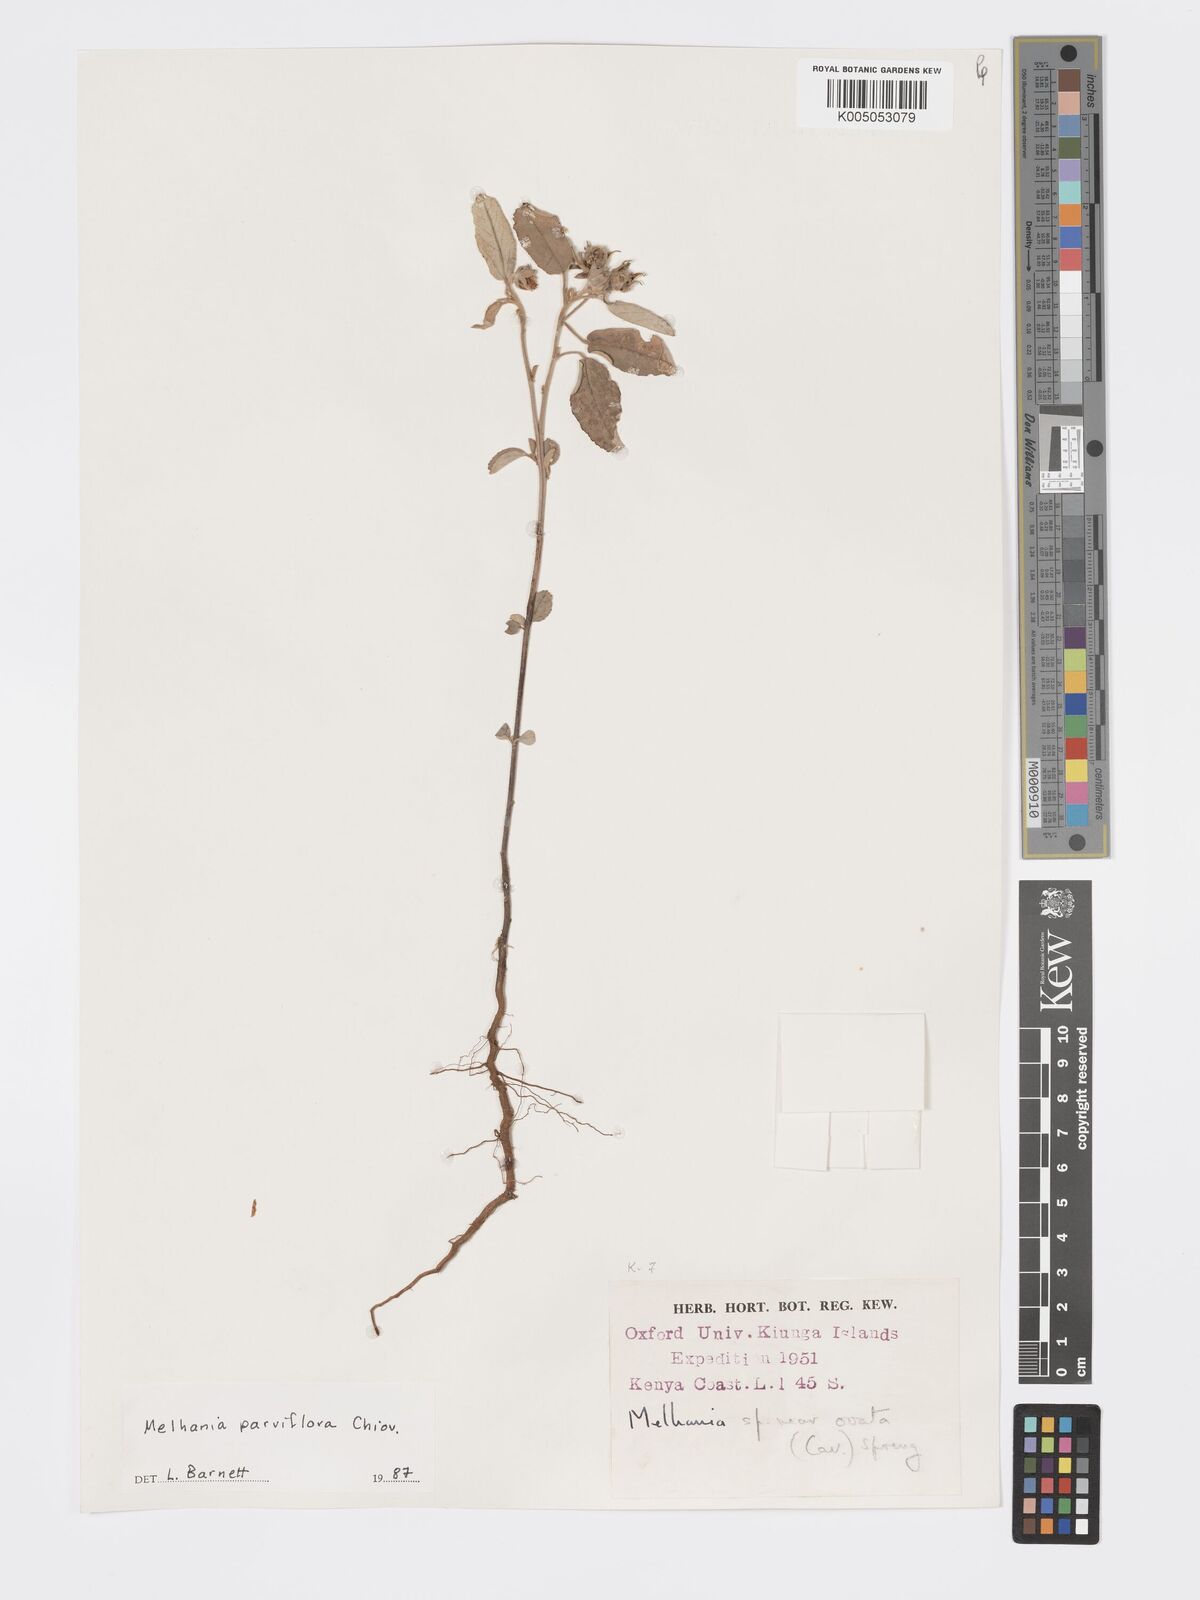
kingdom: Plantae
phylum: Tracheophyta
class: Magnoliopsida
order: Malvales
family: Malvaceae
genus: Melhania
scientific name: Melhania parviflora
